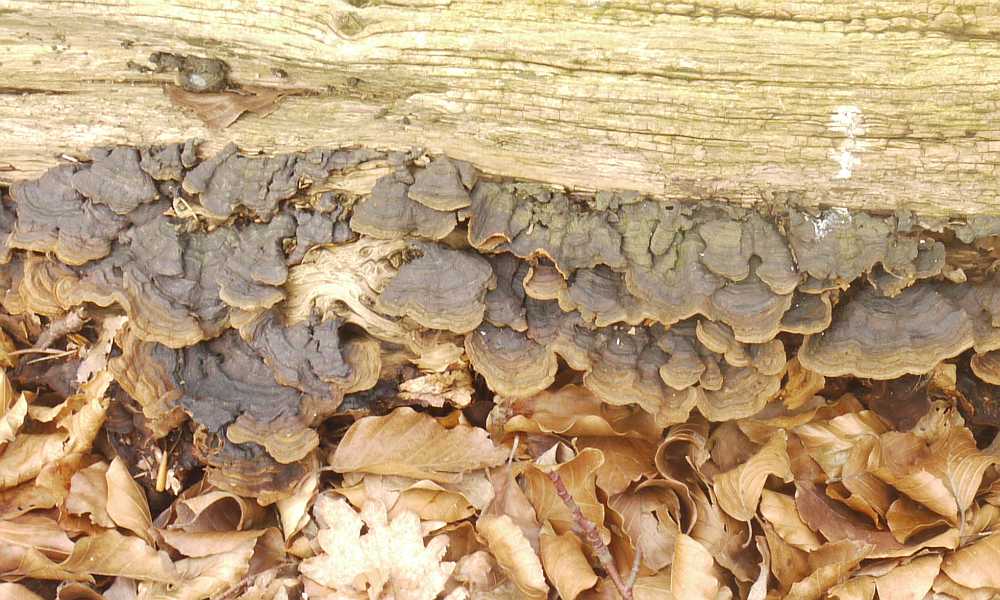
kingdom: Fungi
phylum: Basidiomycota
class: Agaricomycetes
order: Hymenochaetales
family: Hymenochaetaceae
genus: Hymenochaete
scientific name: Hymenochaete rubiginosa
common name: stiv ruslædersvamp
